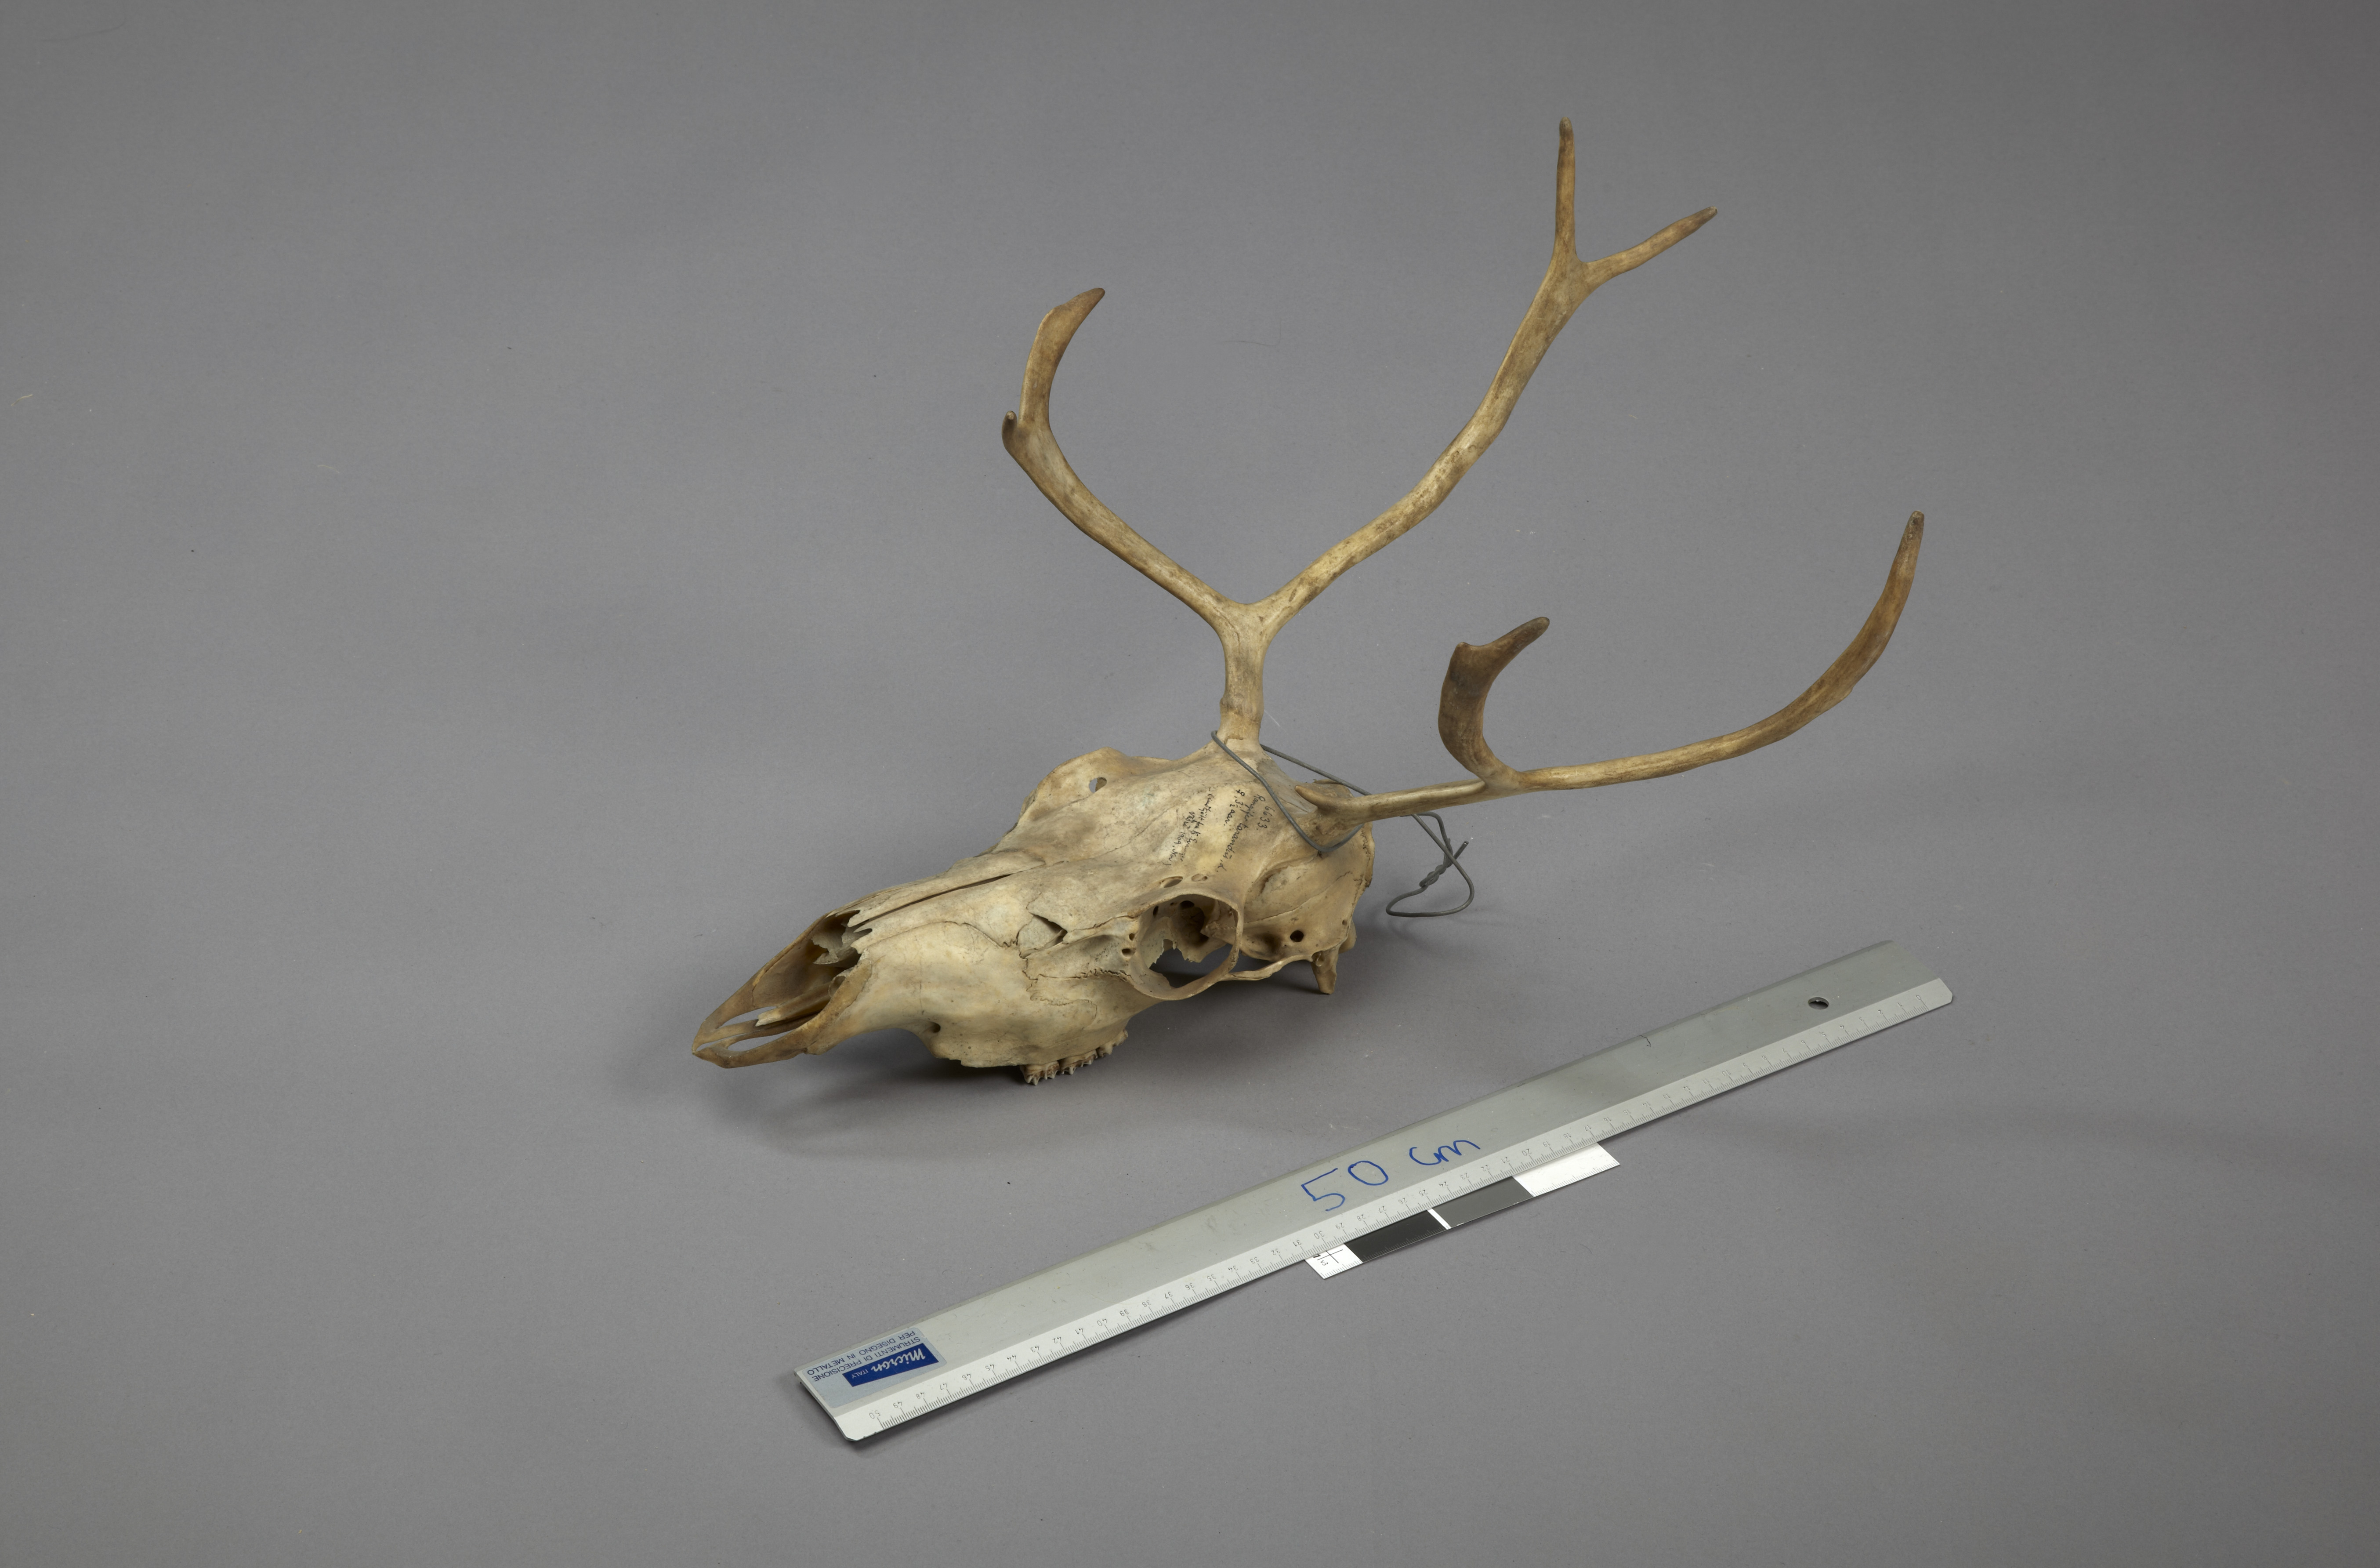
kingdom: Animalia
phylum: Chordata
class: Mammalia
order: Artiodactyla
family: Cervidae
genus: Rangifer
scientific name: Rangifer tarandus
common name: Reindeer
